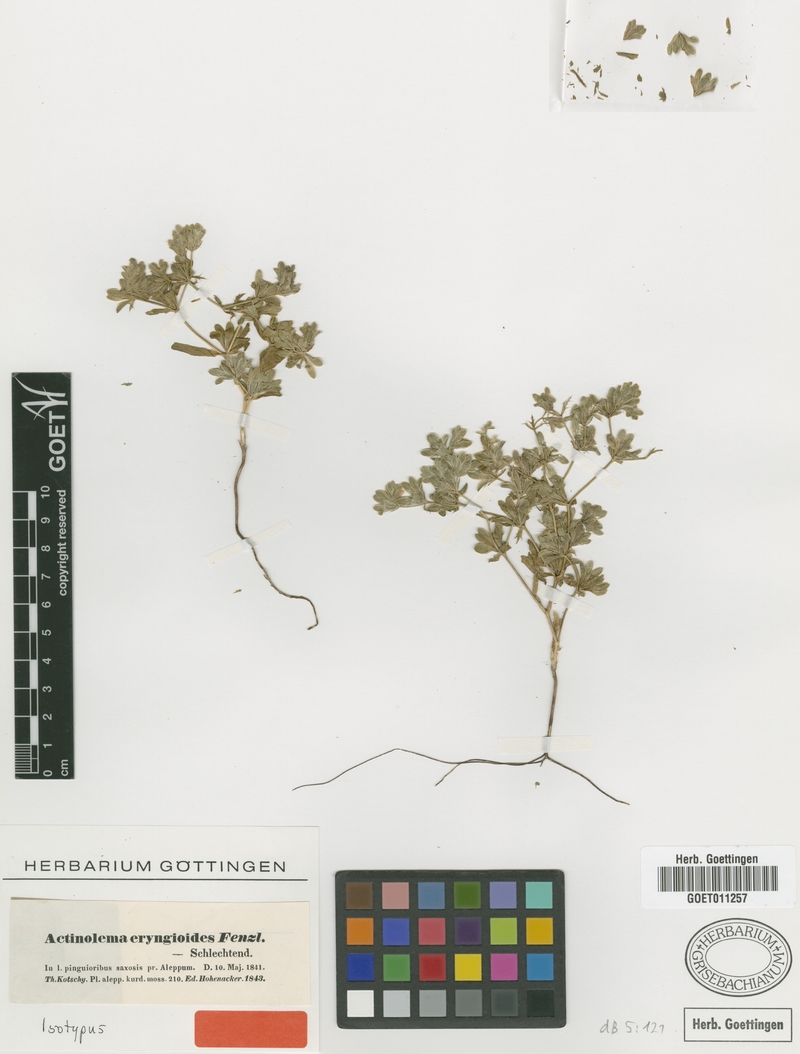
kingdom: Plantae
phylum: Tracheophyta
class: Magnoliopsida
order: Apiales
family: Apiaceae
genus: Actinolema
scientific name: Actinolema eryngioides
